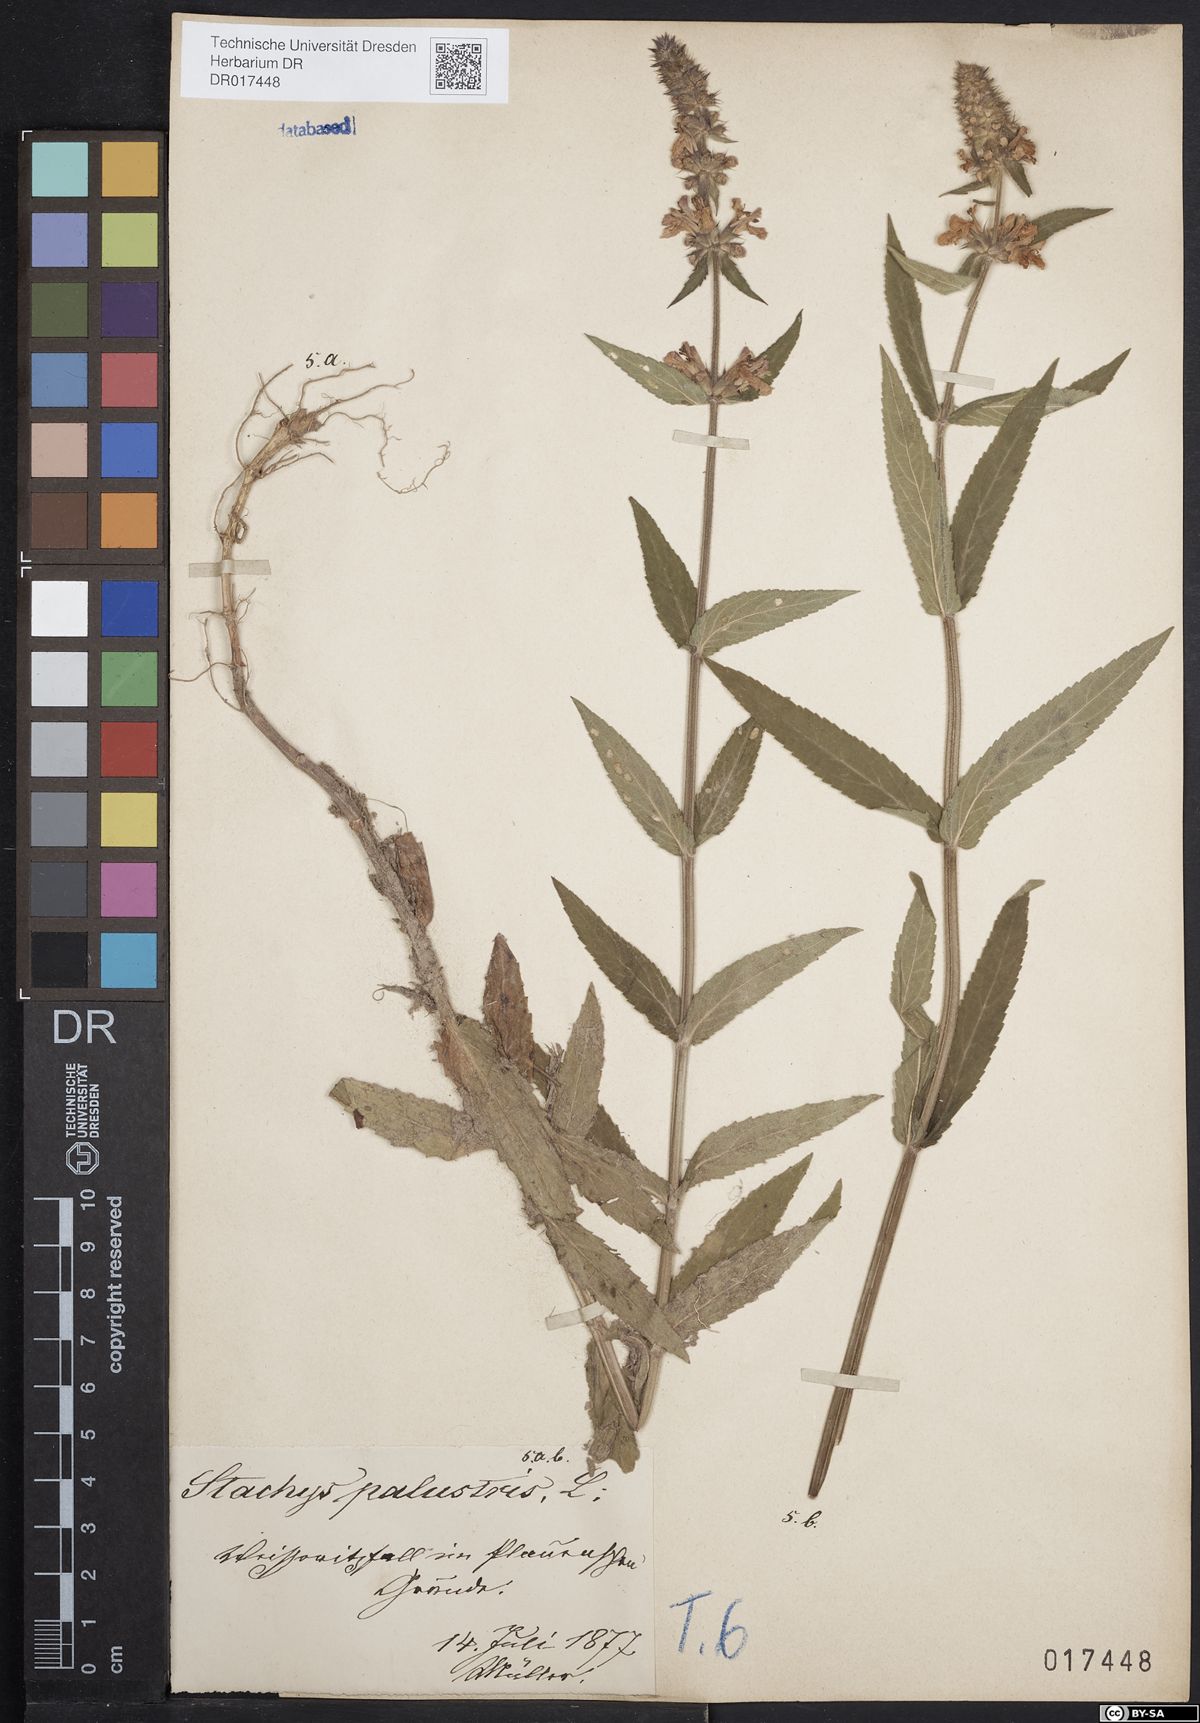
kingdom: Plantae
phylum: Tracheophyta
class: Magnoliopsida
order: Lamiales
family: Lamiaceae
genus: Stachys
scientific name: Stachys palustris
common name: Marsh woundwort
